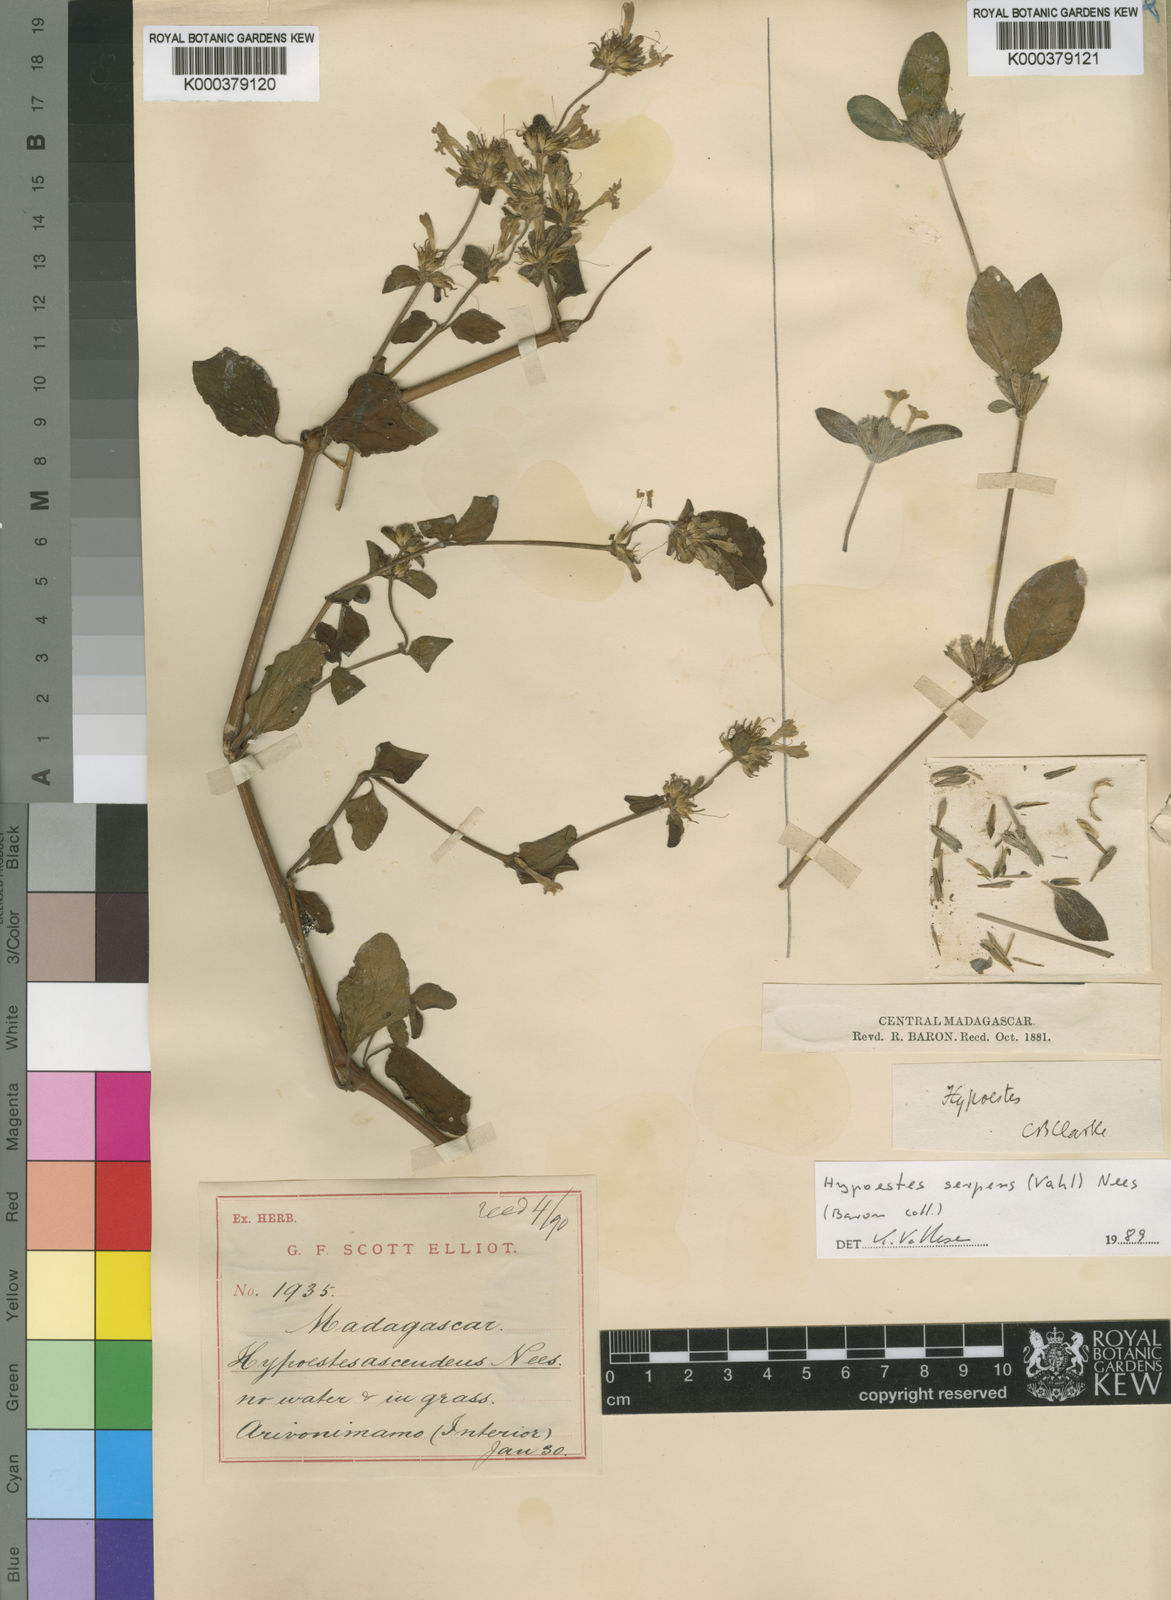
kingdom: Plantae
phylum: Tracheophyta
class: Magnoliopsida
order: Lamiales
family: Acanthaceae
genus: Hypoestes
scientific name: Hypoestes elliotii
